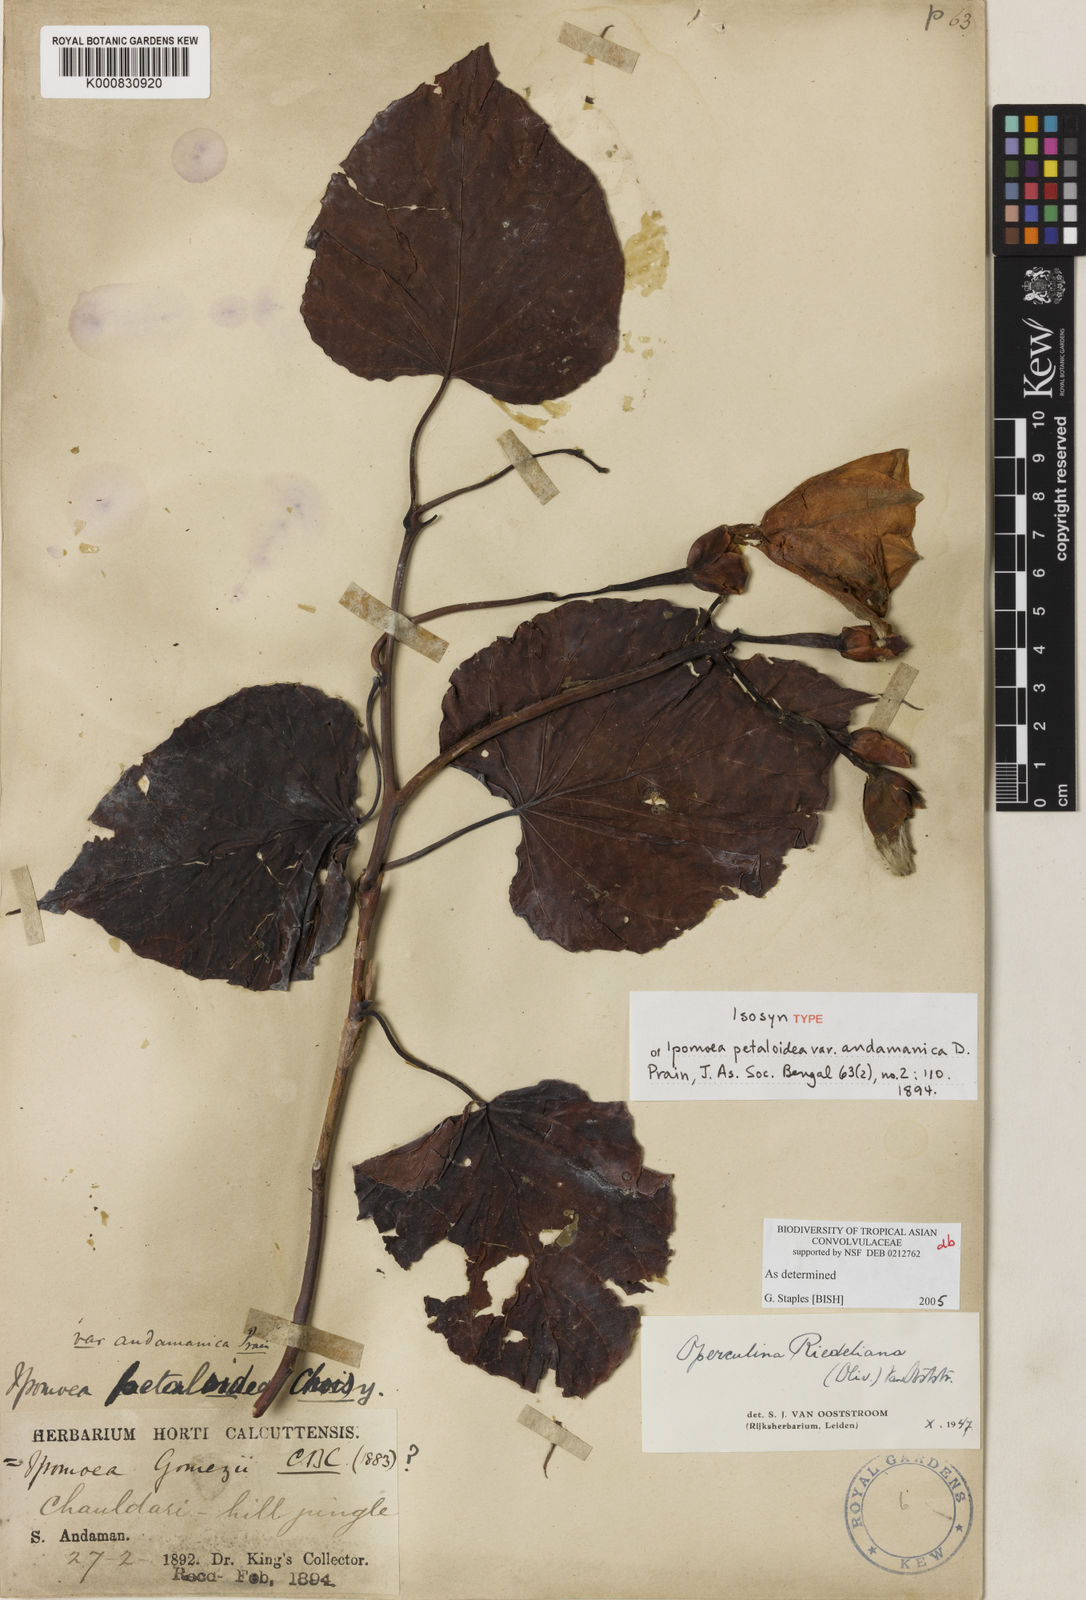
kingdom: Plantae
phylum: Tracheophyta
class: Magnoliopsida
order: Solanales
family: Convolvulaceae
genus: Operculina
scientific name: Operculina riedeliana
